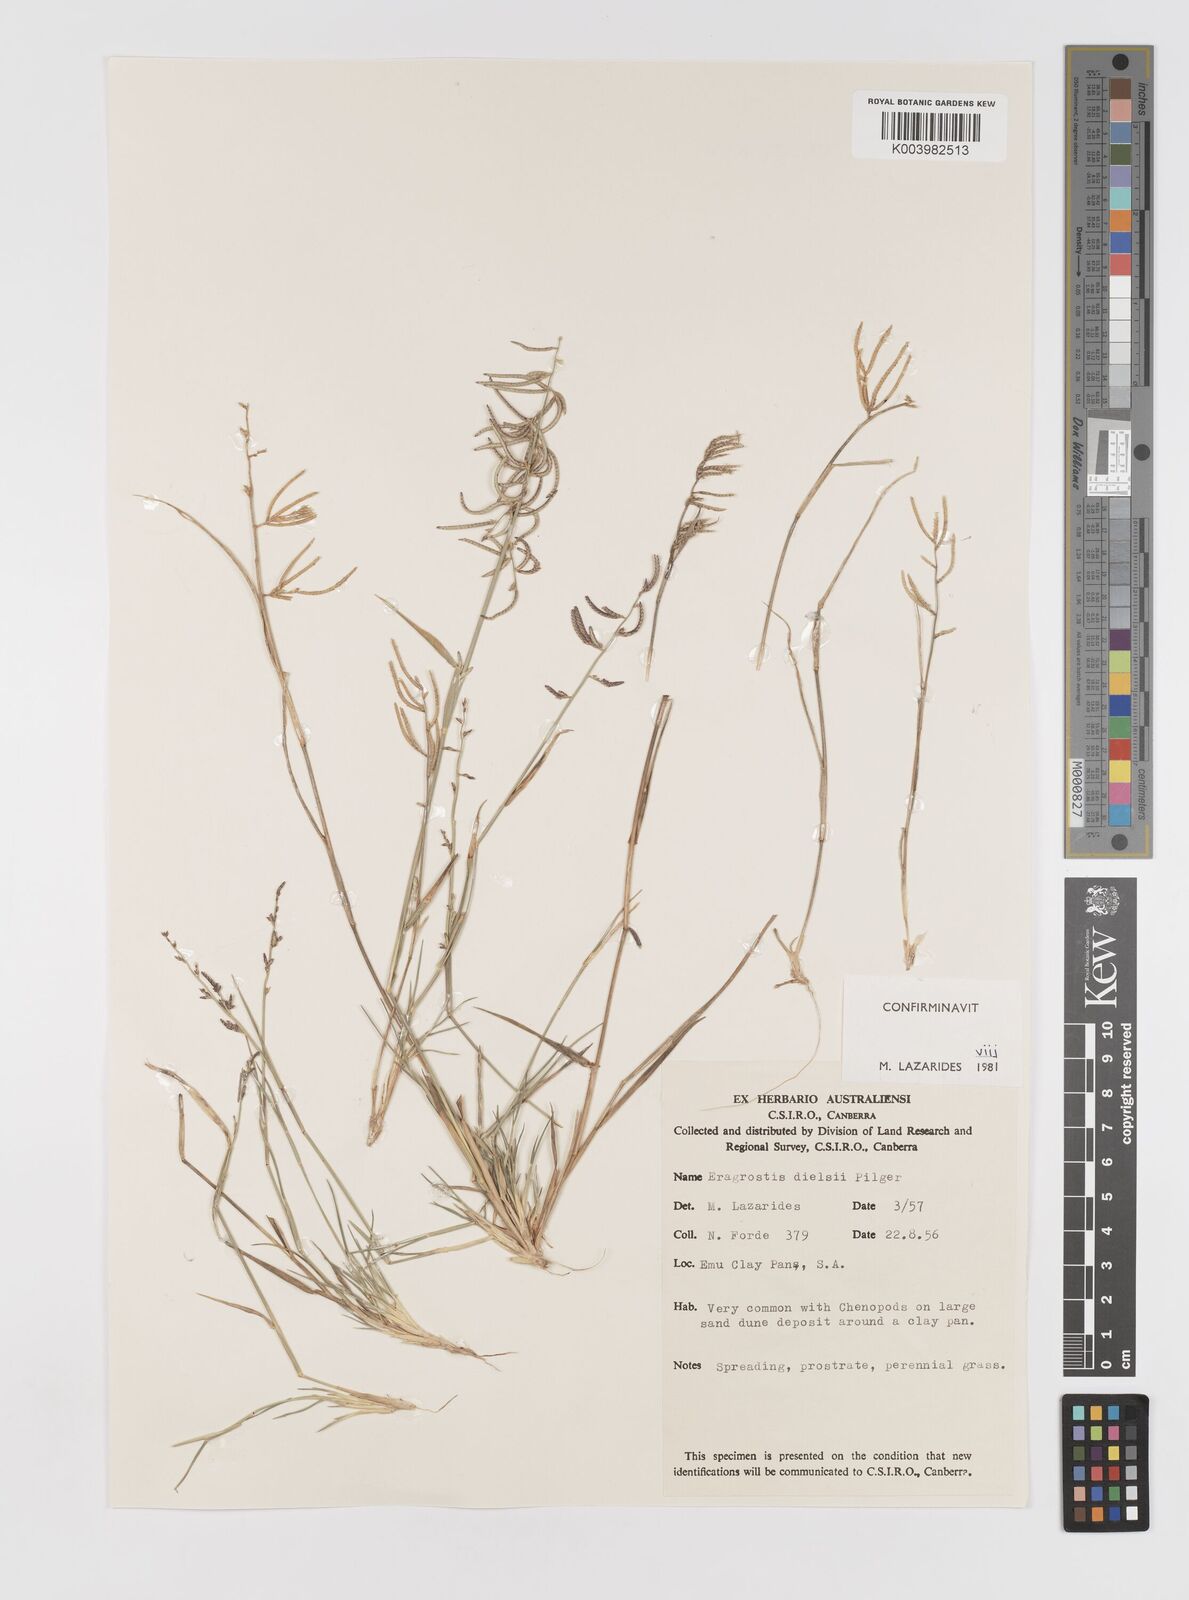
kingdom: Plantae
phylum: Tracheophyta
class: Liliopsida
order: Poales
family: Poaceae
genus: Eragrostis
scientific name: Eragrostis dielsii
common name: Lovegrass
